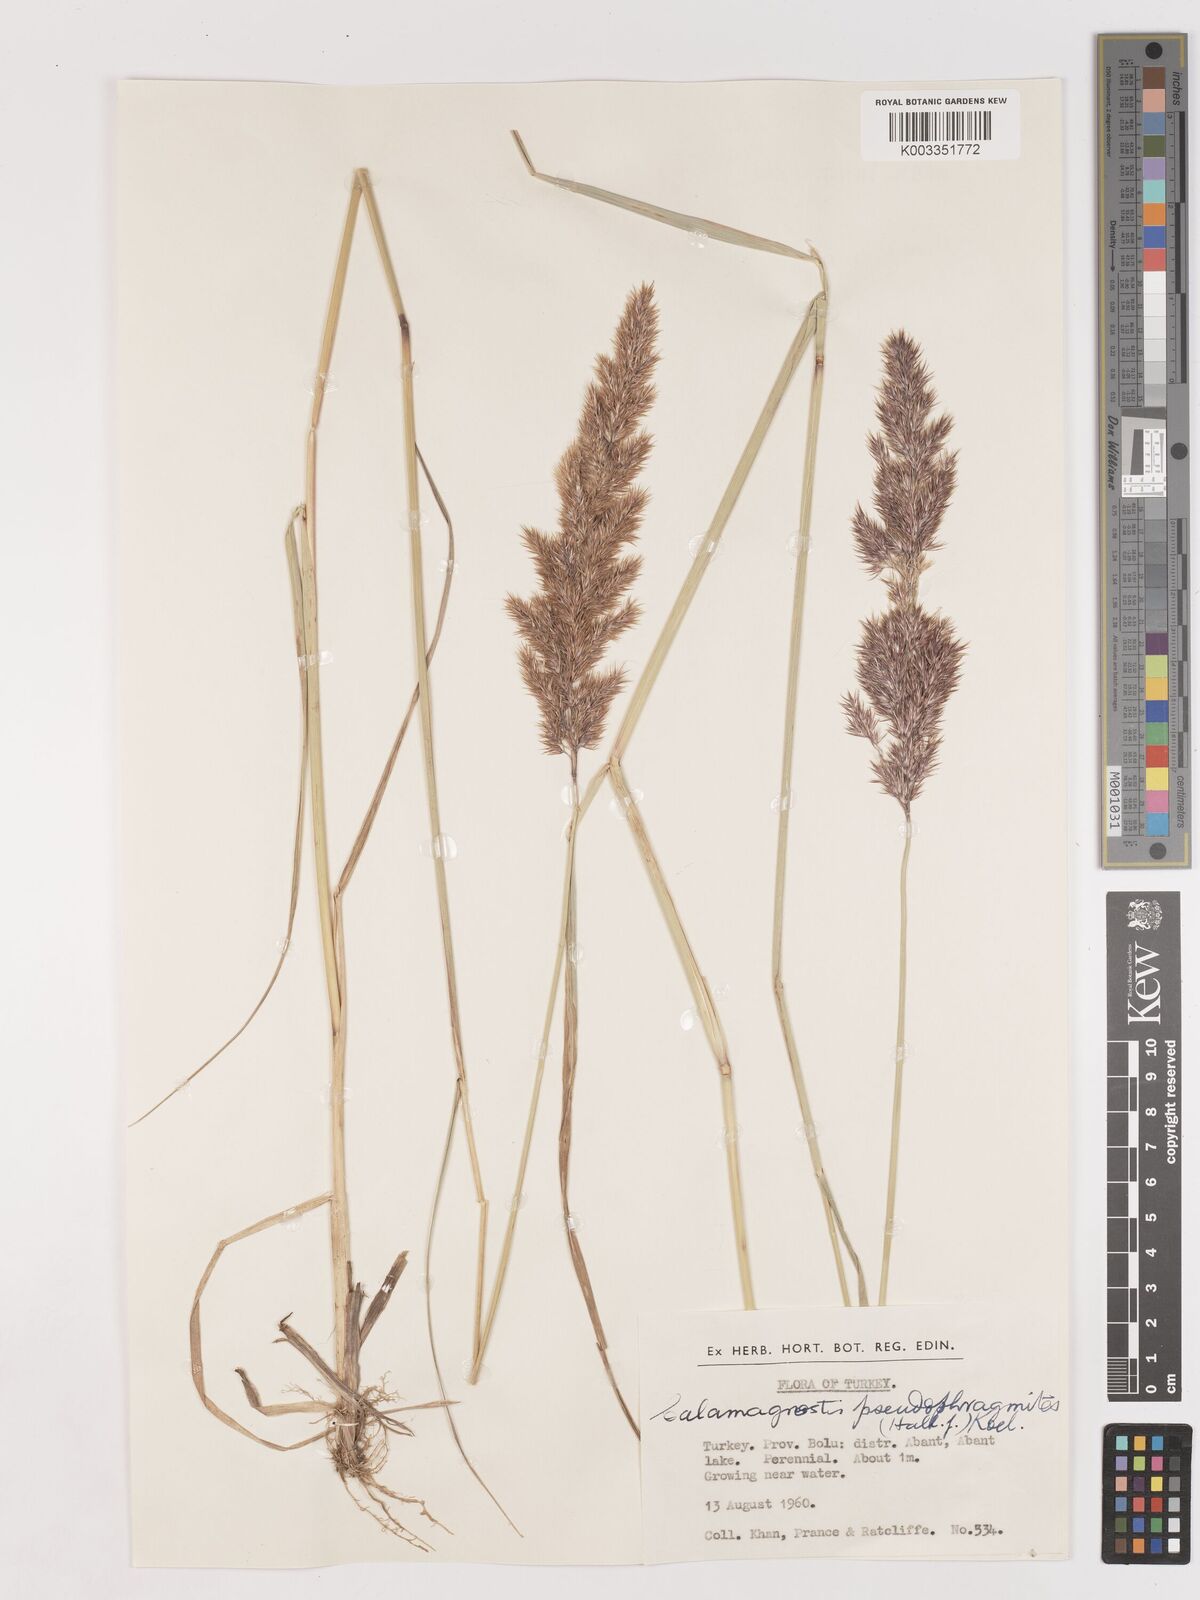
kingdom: Plantae
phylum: Tracheophyta
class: Liliopsida
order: Poales
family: Poaceae
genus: Calamagrostis
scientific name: Calamagrostis pseudophragmites
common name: Coastal small-reed
